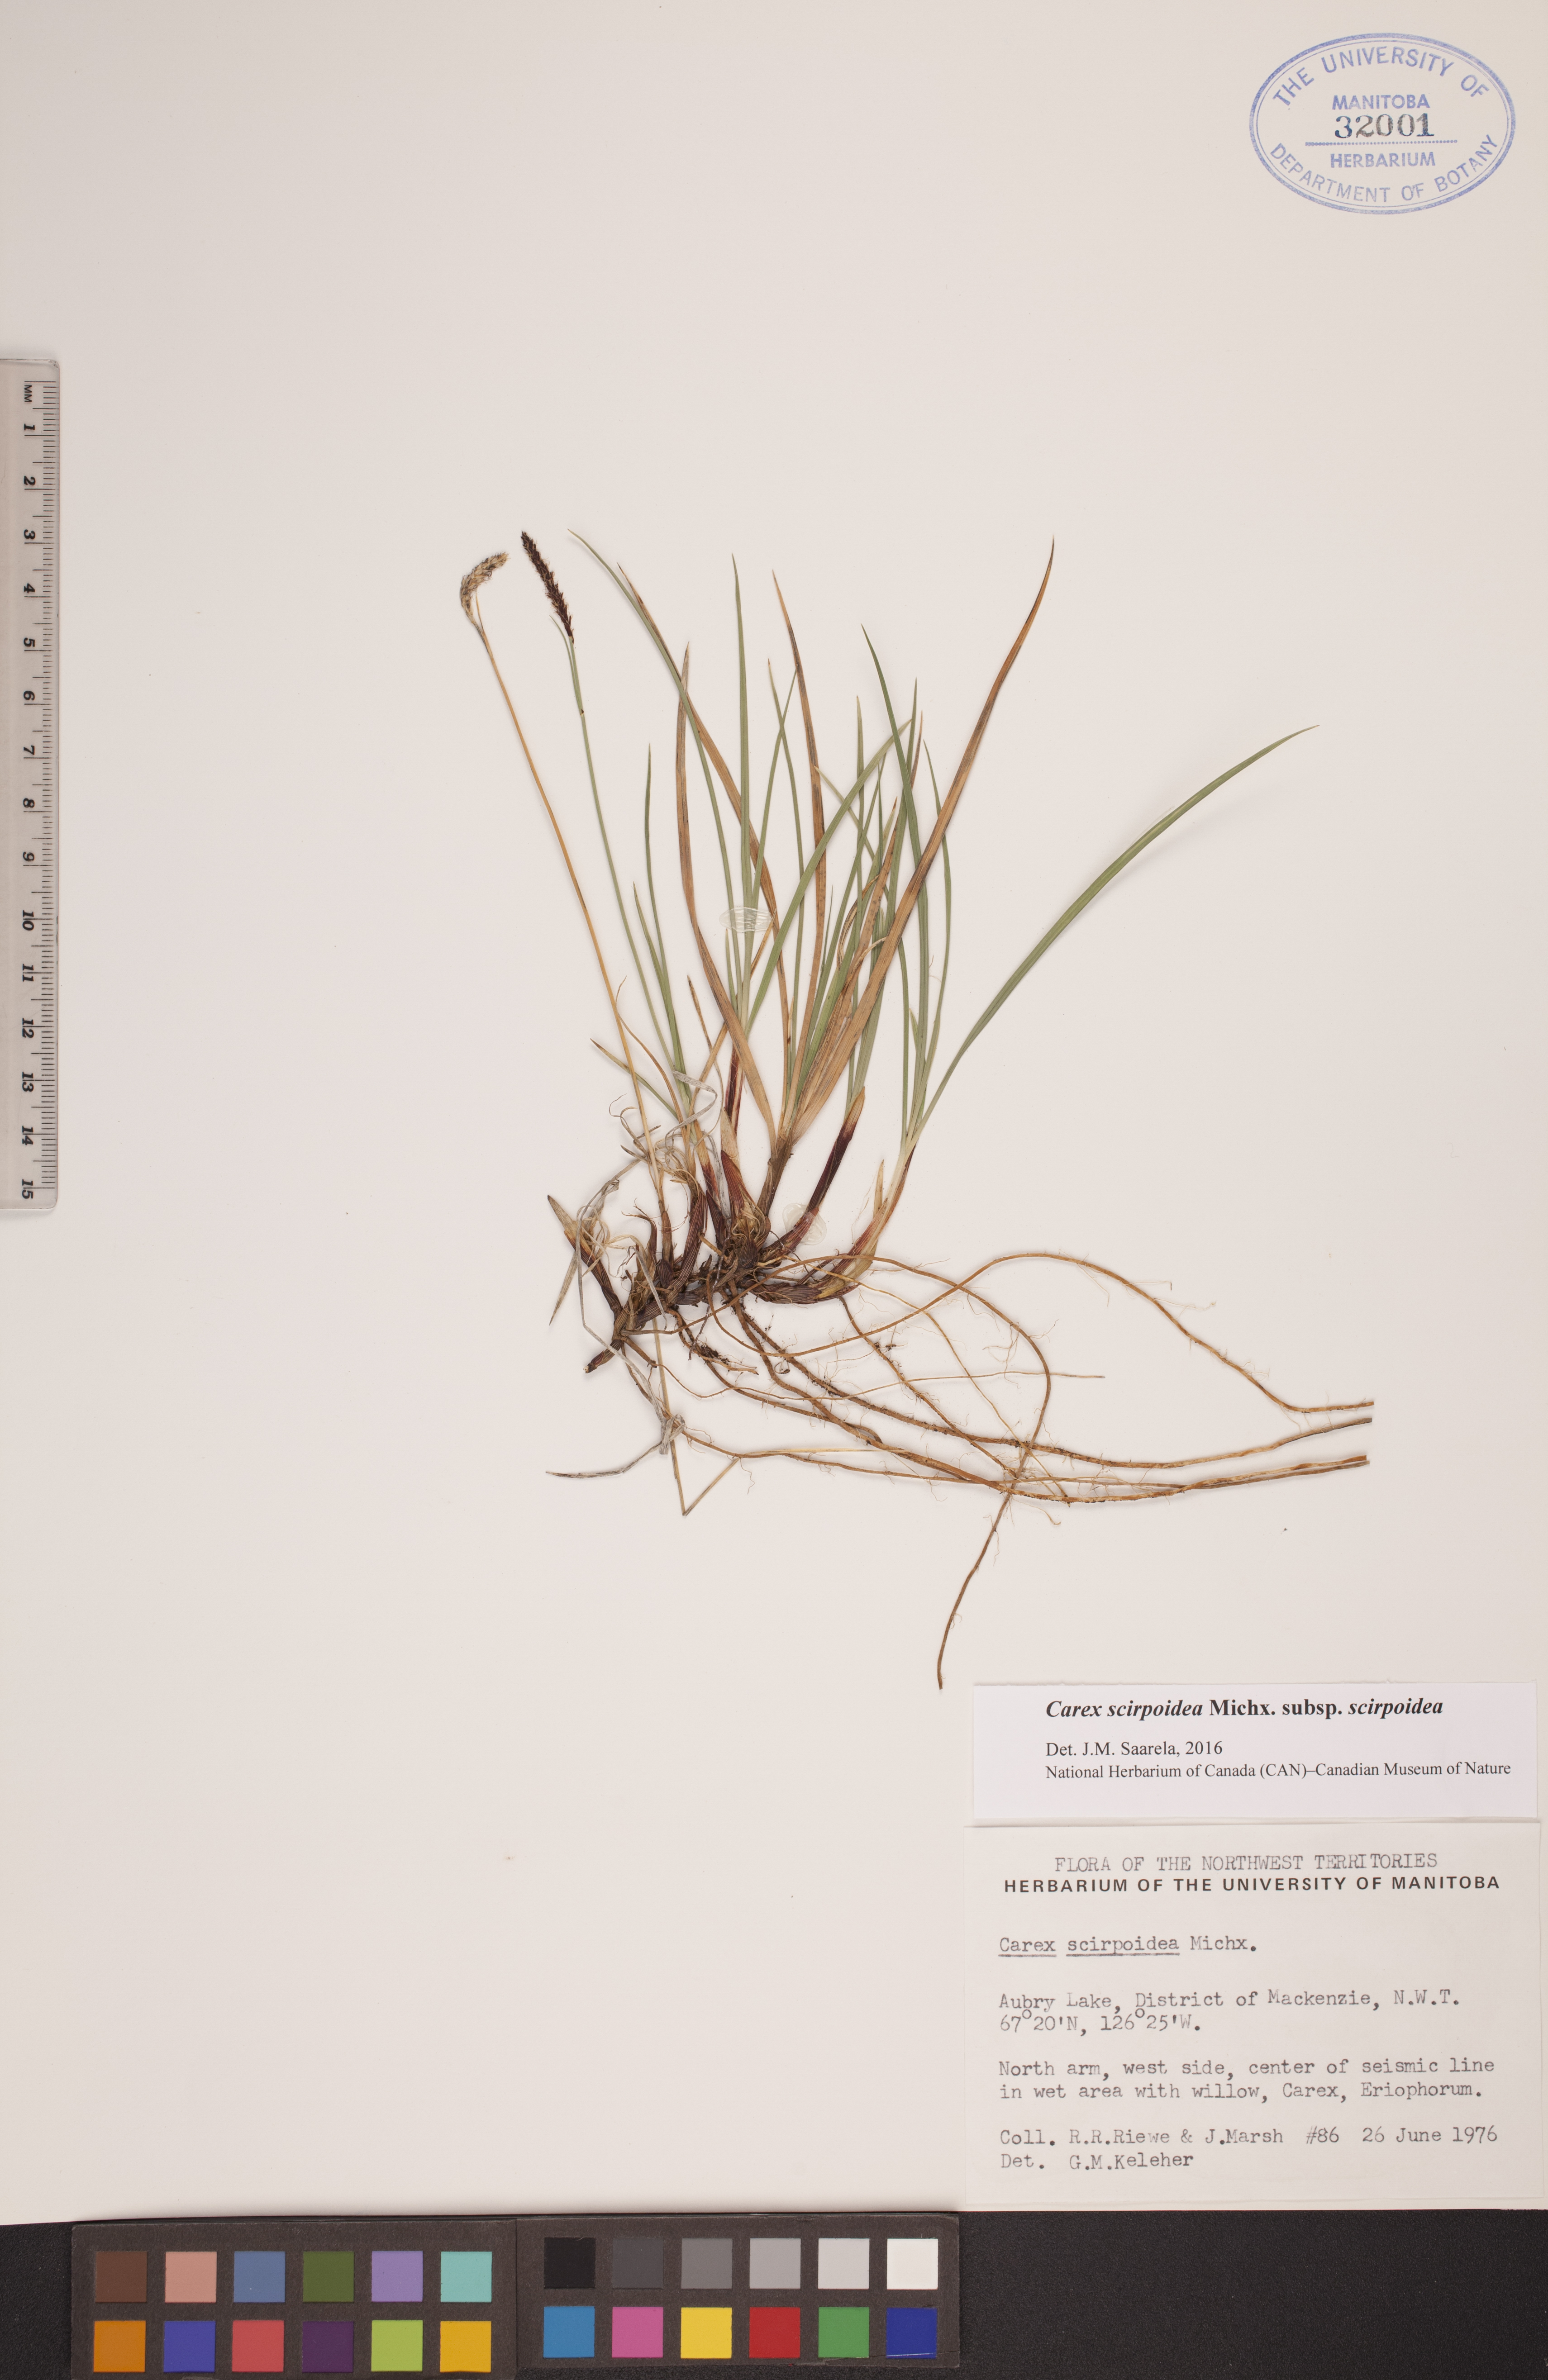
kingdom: Plantae
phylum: Tracheophyta
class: Liliopsida
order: Poales
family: Cyperaceae
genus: Carex
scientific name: Carex scirpoidea
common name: Canada single-spike sedge
